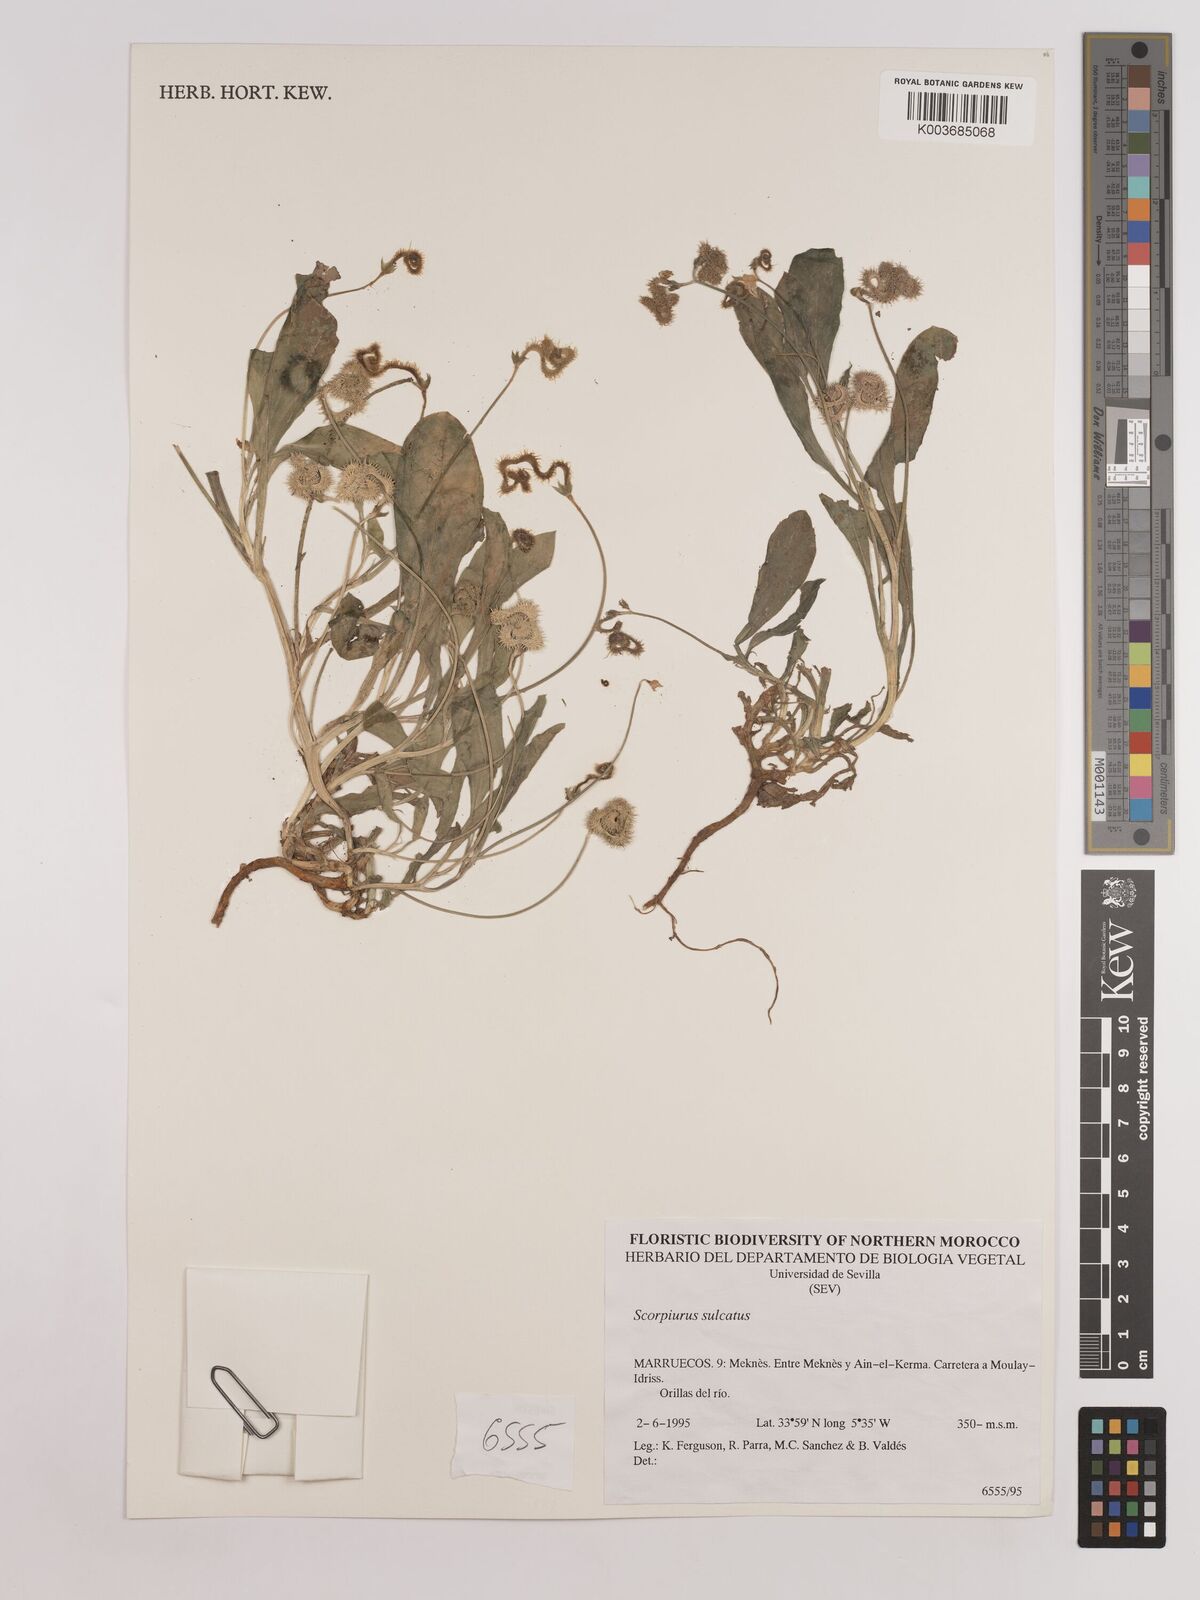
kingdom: Plantae
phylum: Tracheophyta
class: Magnoliopsida
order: Fabales
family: Fabaceae
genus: Scorpiurus
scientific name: Scorpiurus muricatus
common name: Caterpillar-plant
